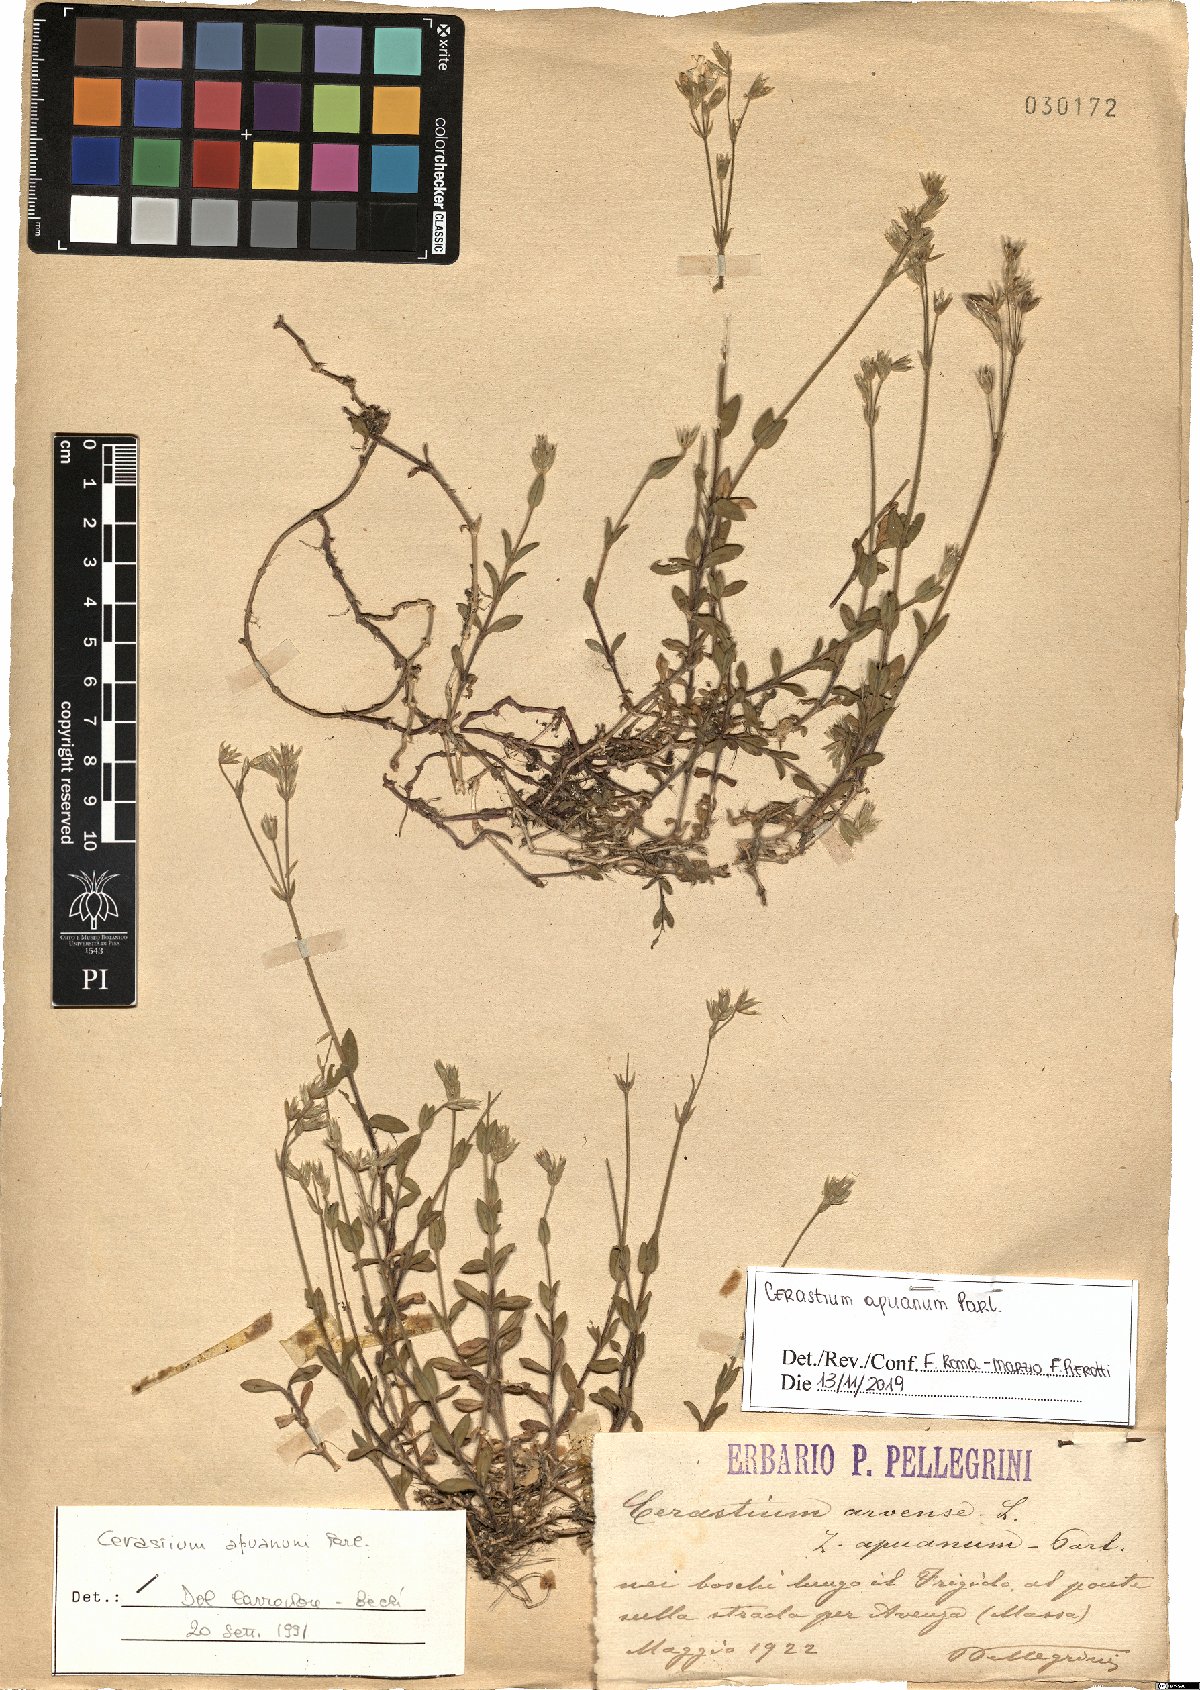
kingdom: Plantae
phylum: Tracheophyta
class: Magnoliopsida
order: Caryophyllales
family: Caryophyllaceae
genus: Cerastium
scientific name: Cerastium scaranii
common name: Italian mouse-ear
